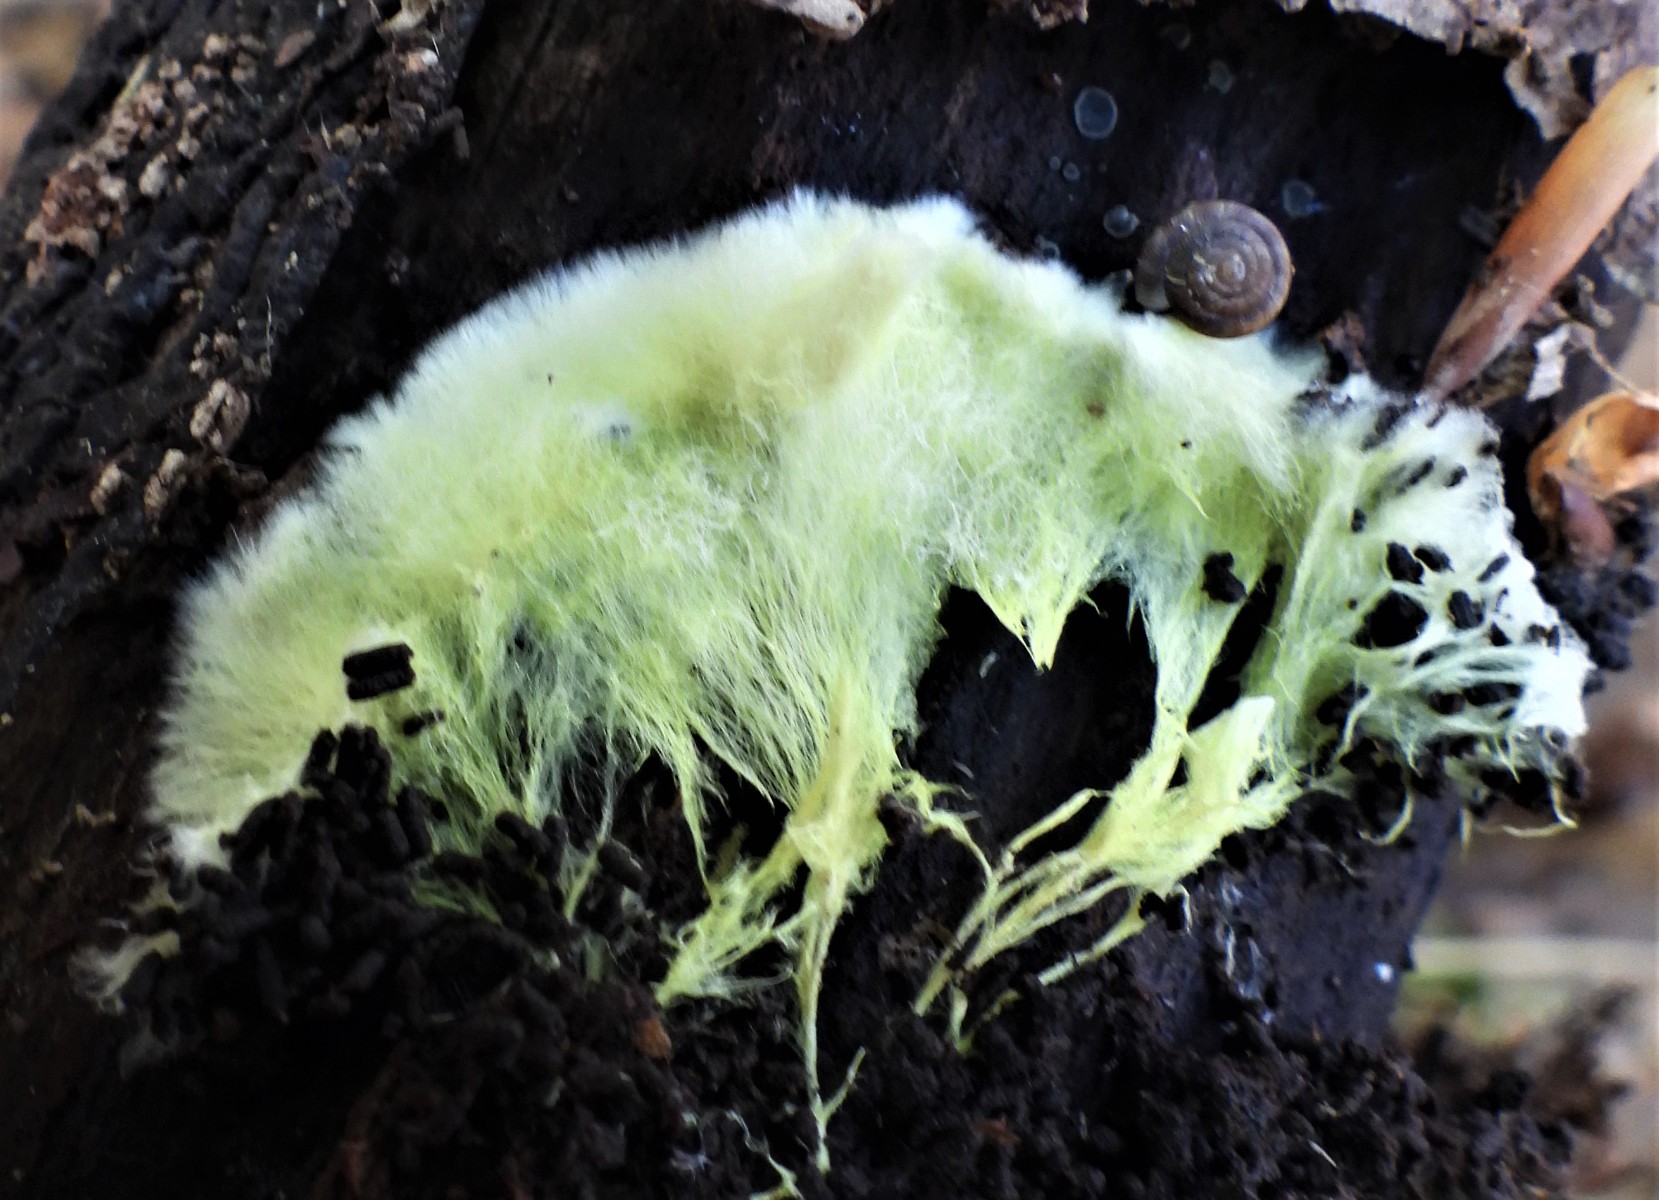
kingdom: Fungi
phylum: Basidiomycota
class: Agaricomycetes
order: Russulales
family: Xenasmataceae
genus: Xenasmatella
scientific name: Xenasmatella vaga
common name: svovl-strenghinde
